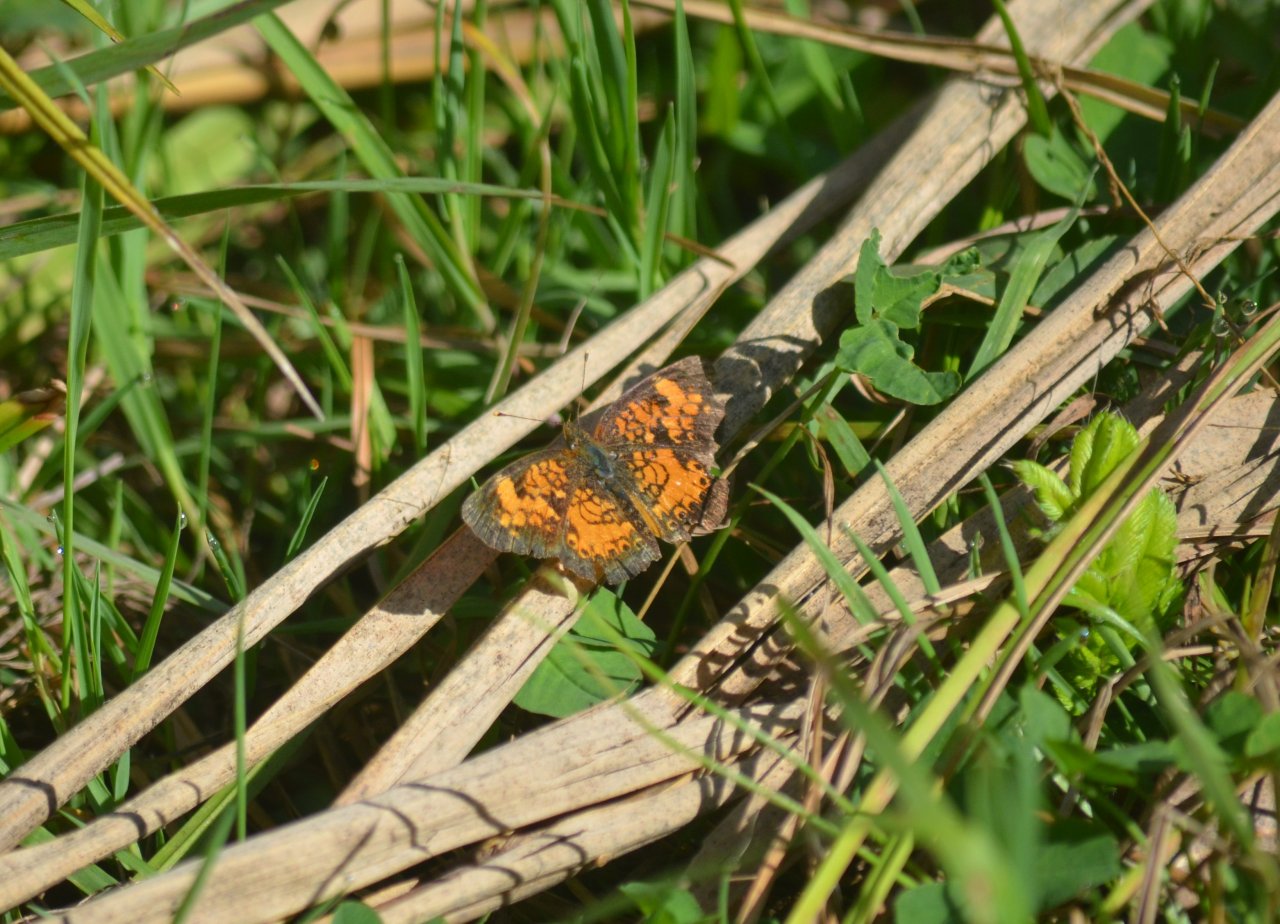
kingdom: Animalia
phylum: Arthropoda
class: Insecta
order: Lepidoptera
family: Nymphalidae
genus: Phyciodes
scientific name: Phyciodes tharos
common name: Northern Crescent
